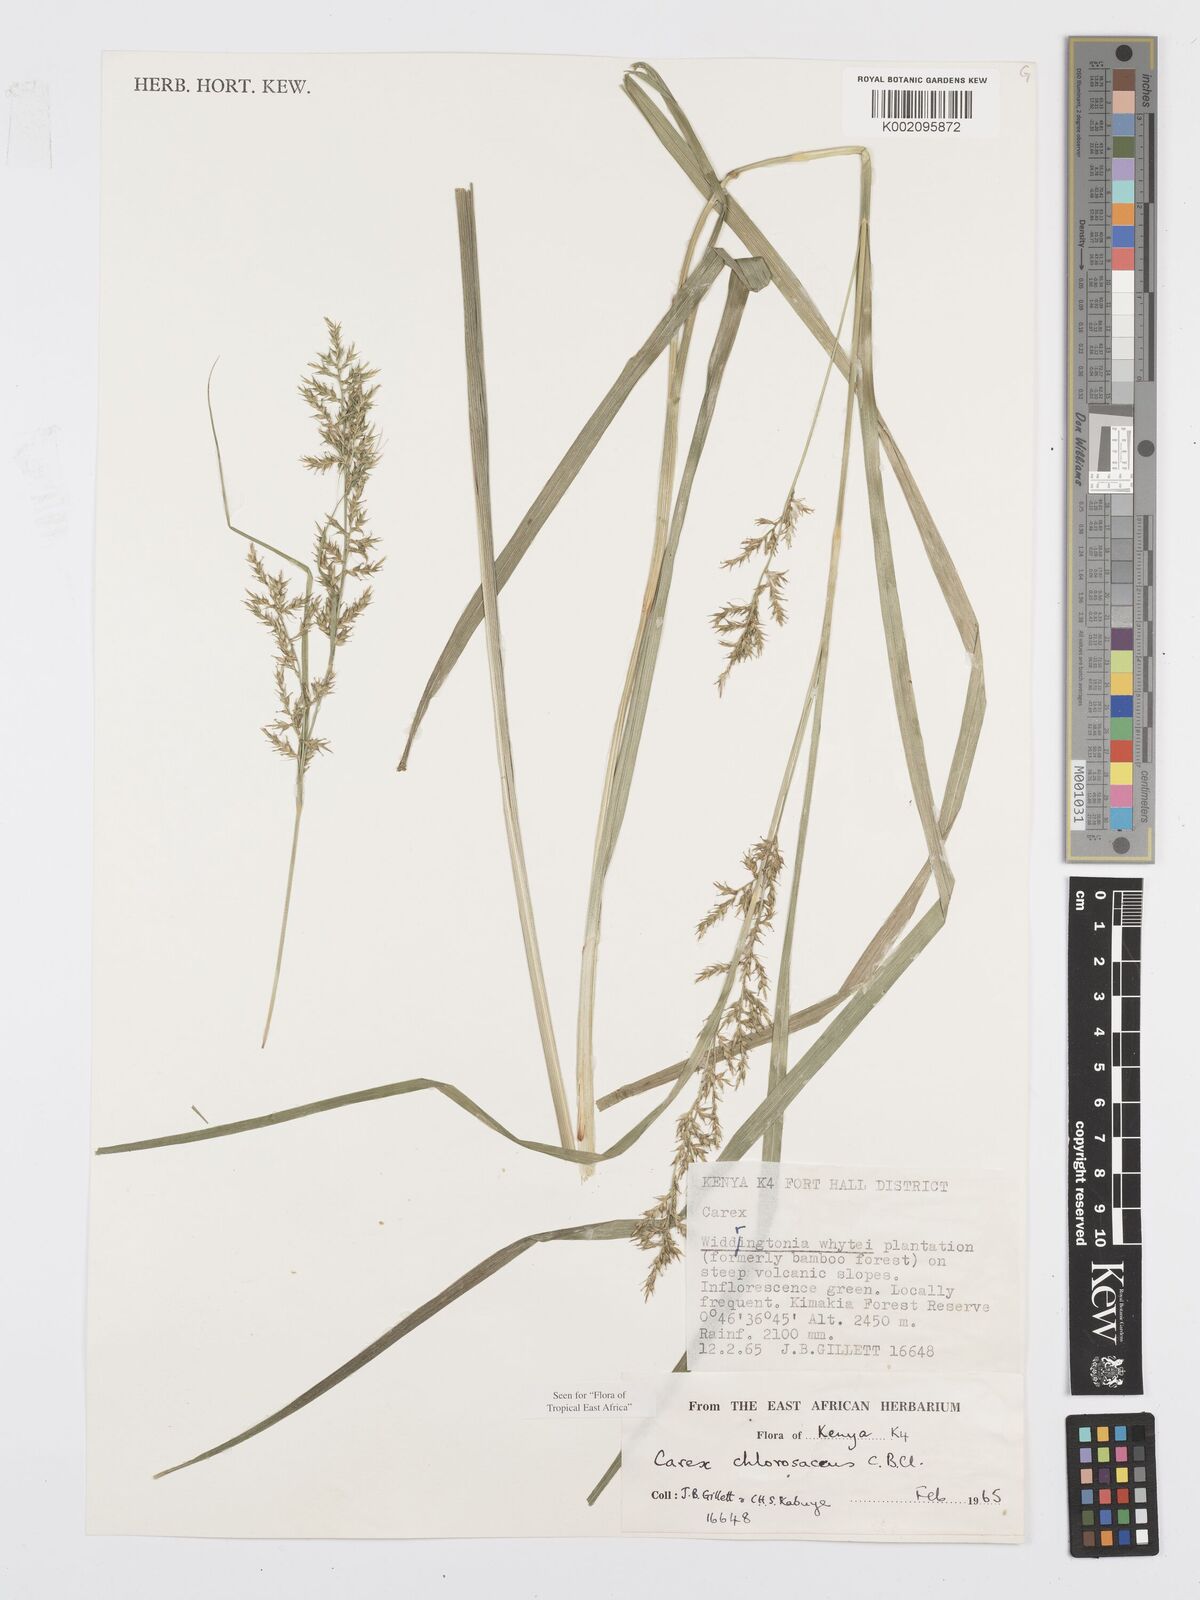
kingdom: Plantae
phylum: Tracheophyta
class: Liliopsida
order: Poales
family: Cyperaceae
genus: Carex
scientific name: Carex chlorosaccus
